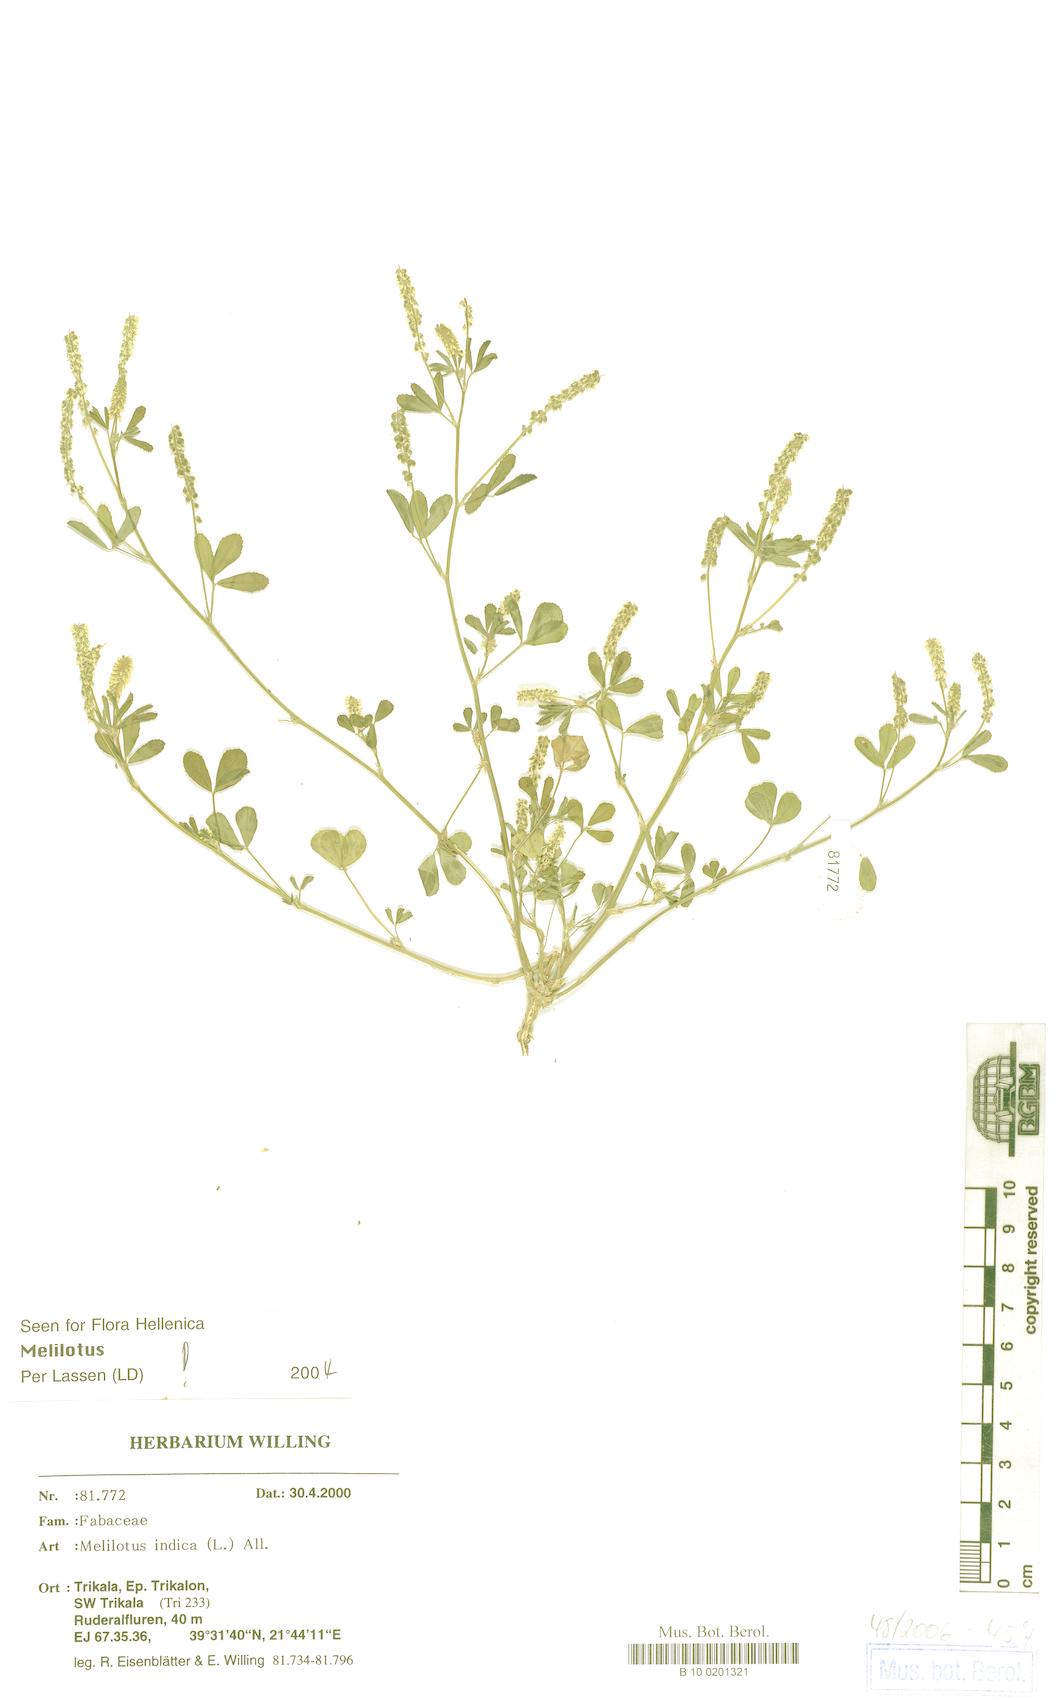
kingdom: Plantae
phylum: Tracheophyta
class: Magnoliopsida
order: Fabales
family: Fabaceae
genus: Melilotus
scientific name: Melilotus indicus
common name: Small melilot
